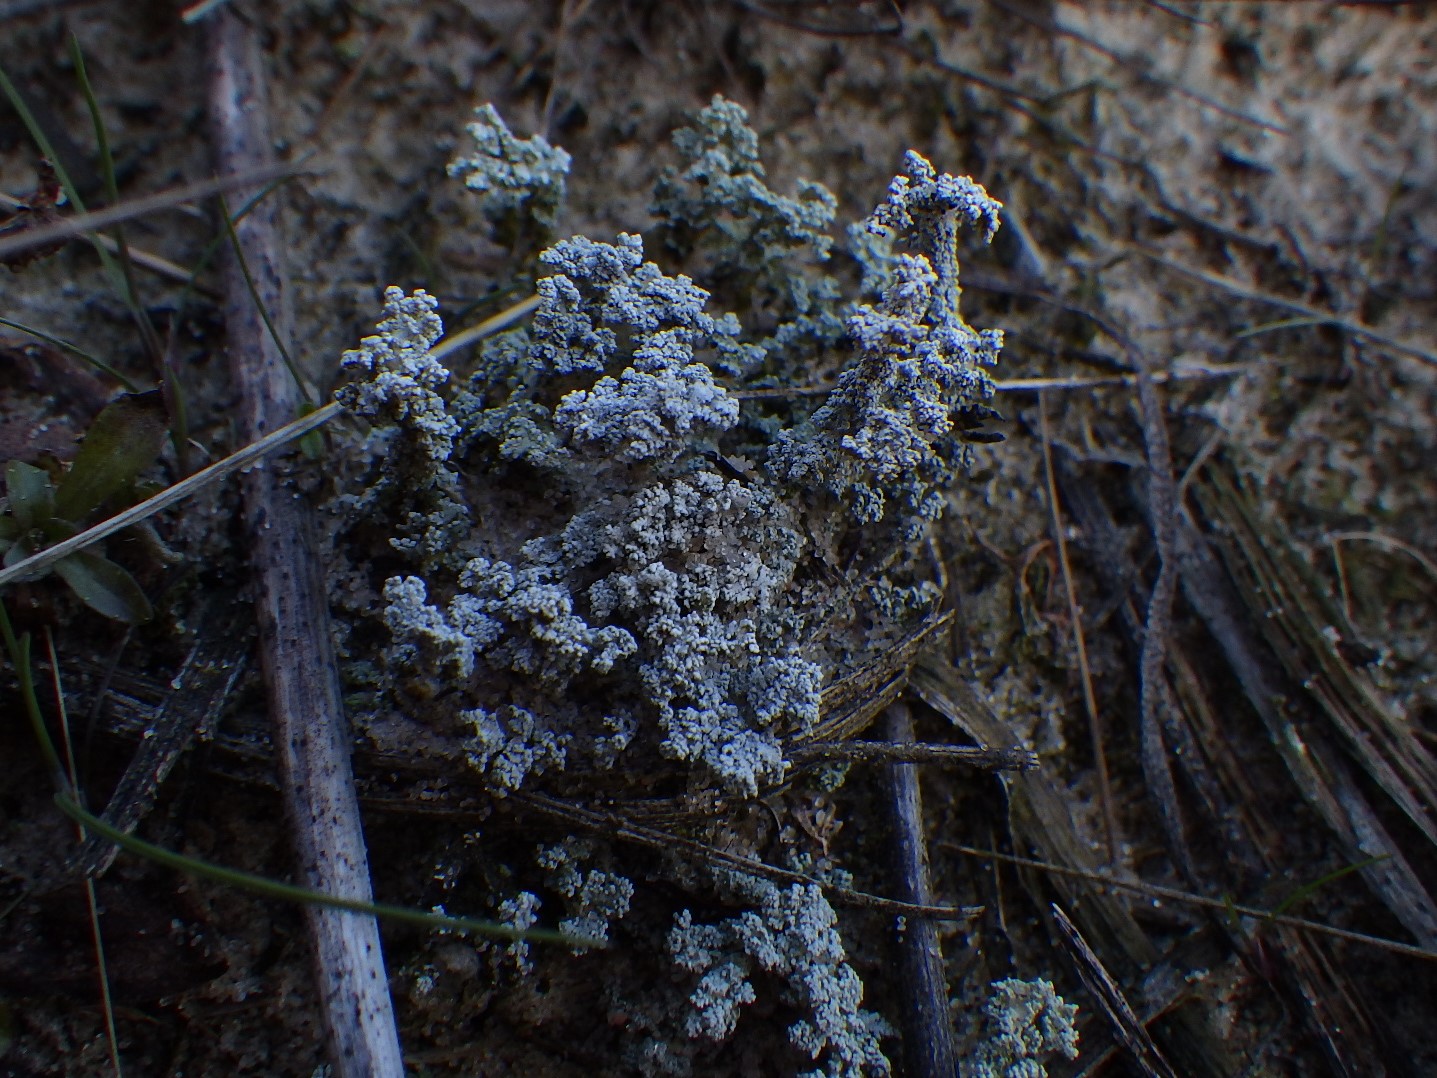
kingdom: Fungi
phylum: Ascomycota
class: Lecanoromycetes
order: Lecanorales
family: Stereocaulaceae
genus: Stereocaulon
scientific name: Stereocaulon saxatile
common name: klit-korallav
